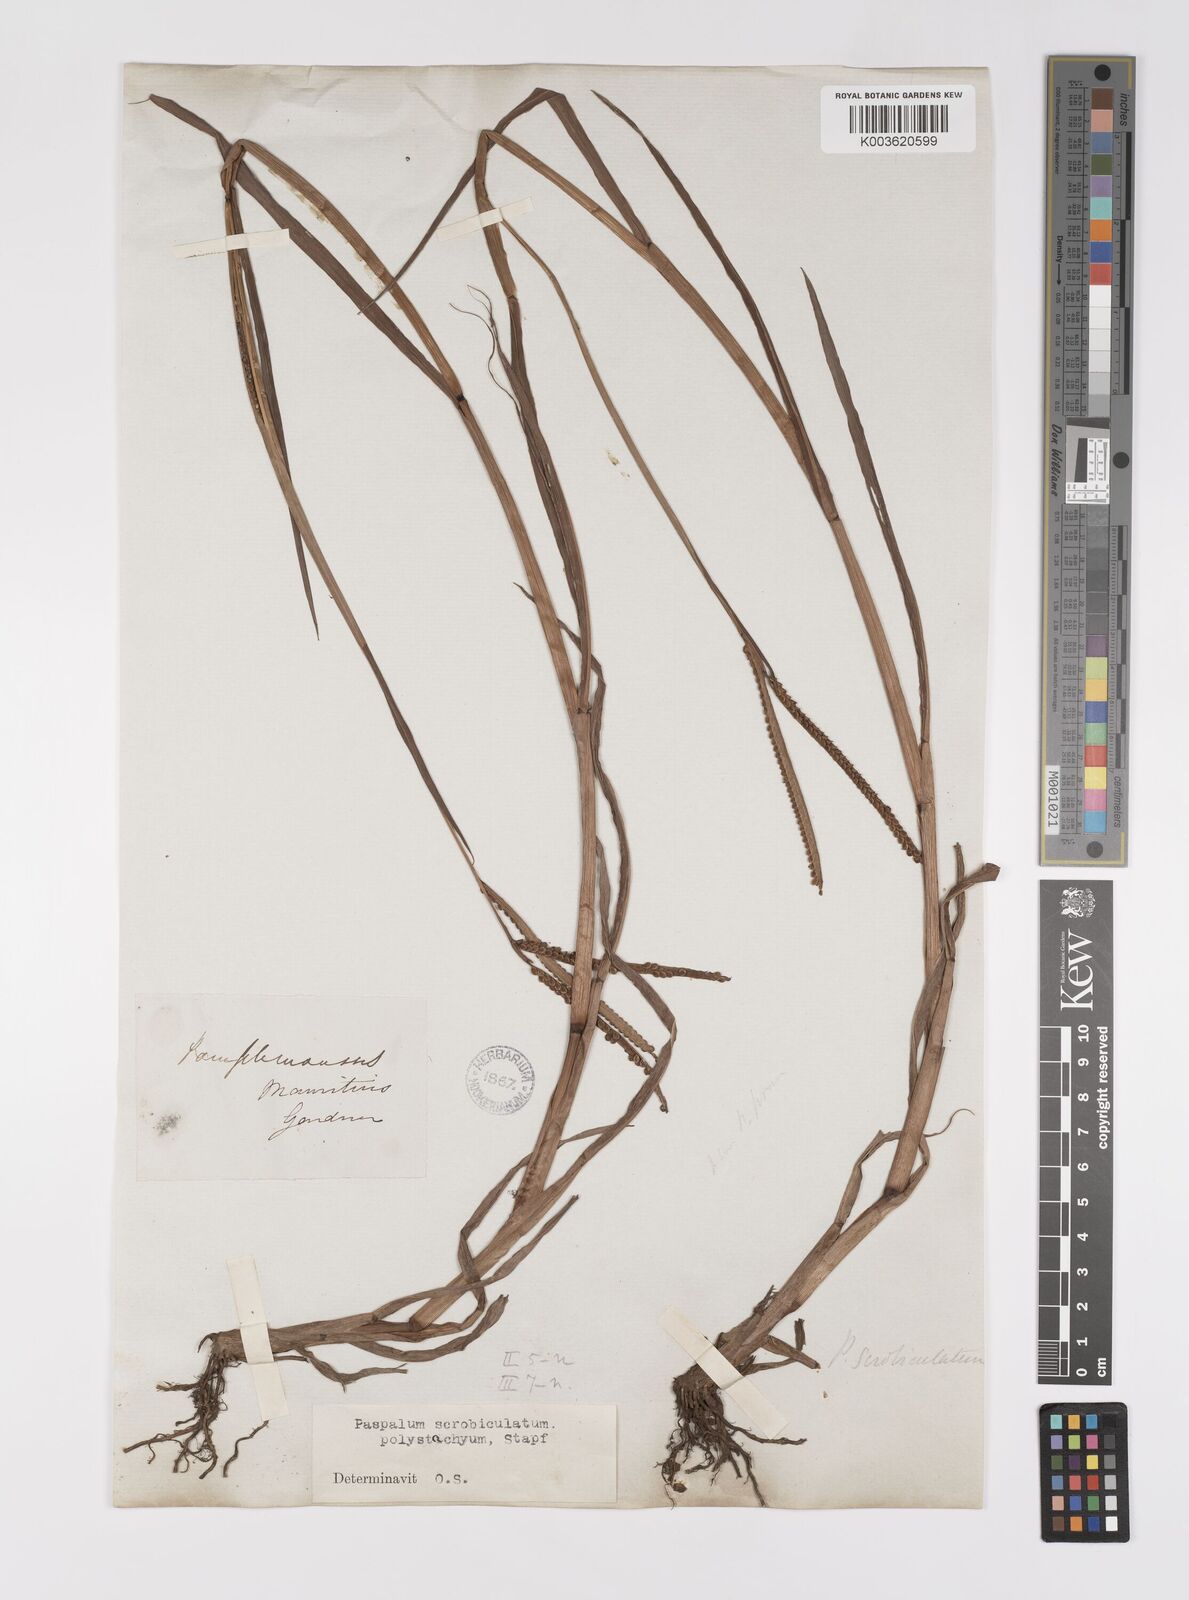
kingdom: Plantae
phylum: Tracheophyta
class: Liliopsida
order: Poales
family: Poaceae
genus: Paspalum
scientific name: Paspalum scrobiculatum
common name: Kodo millet
